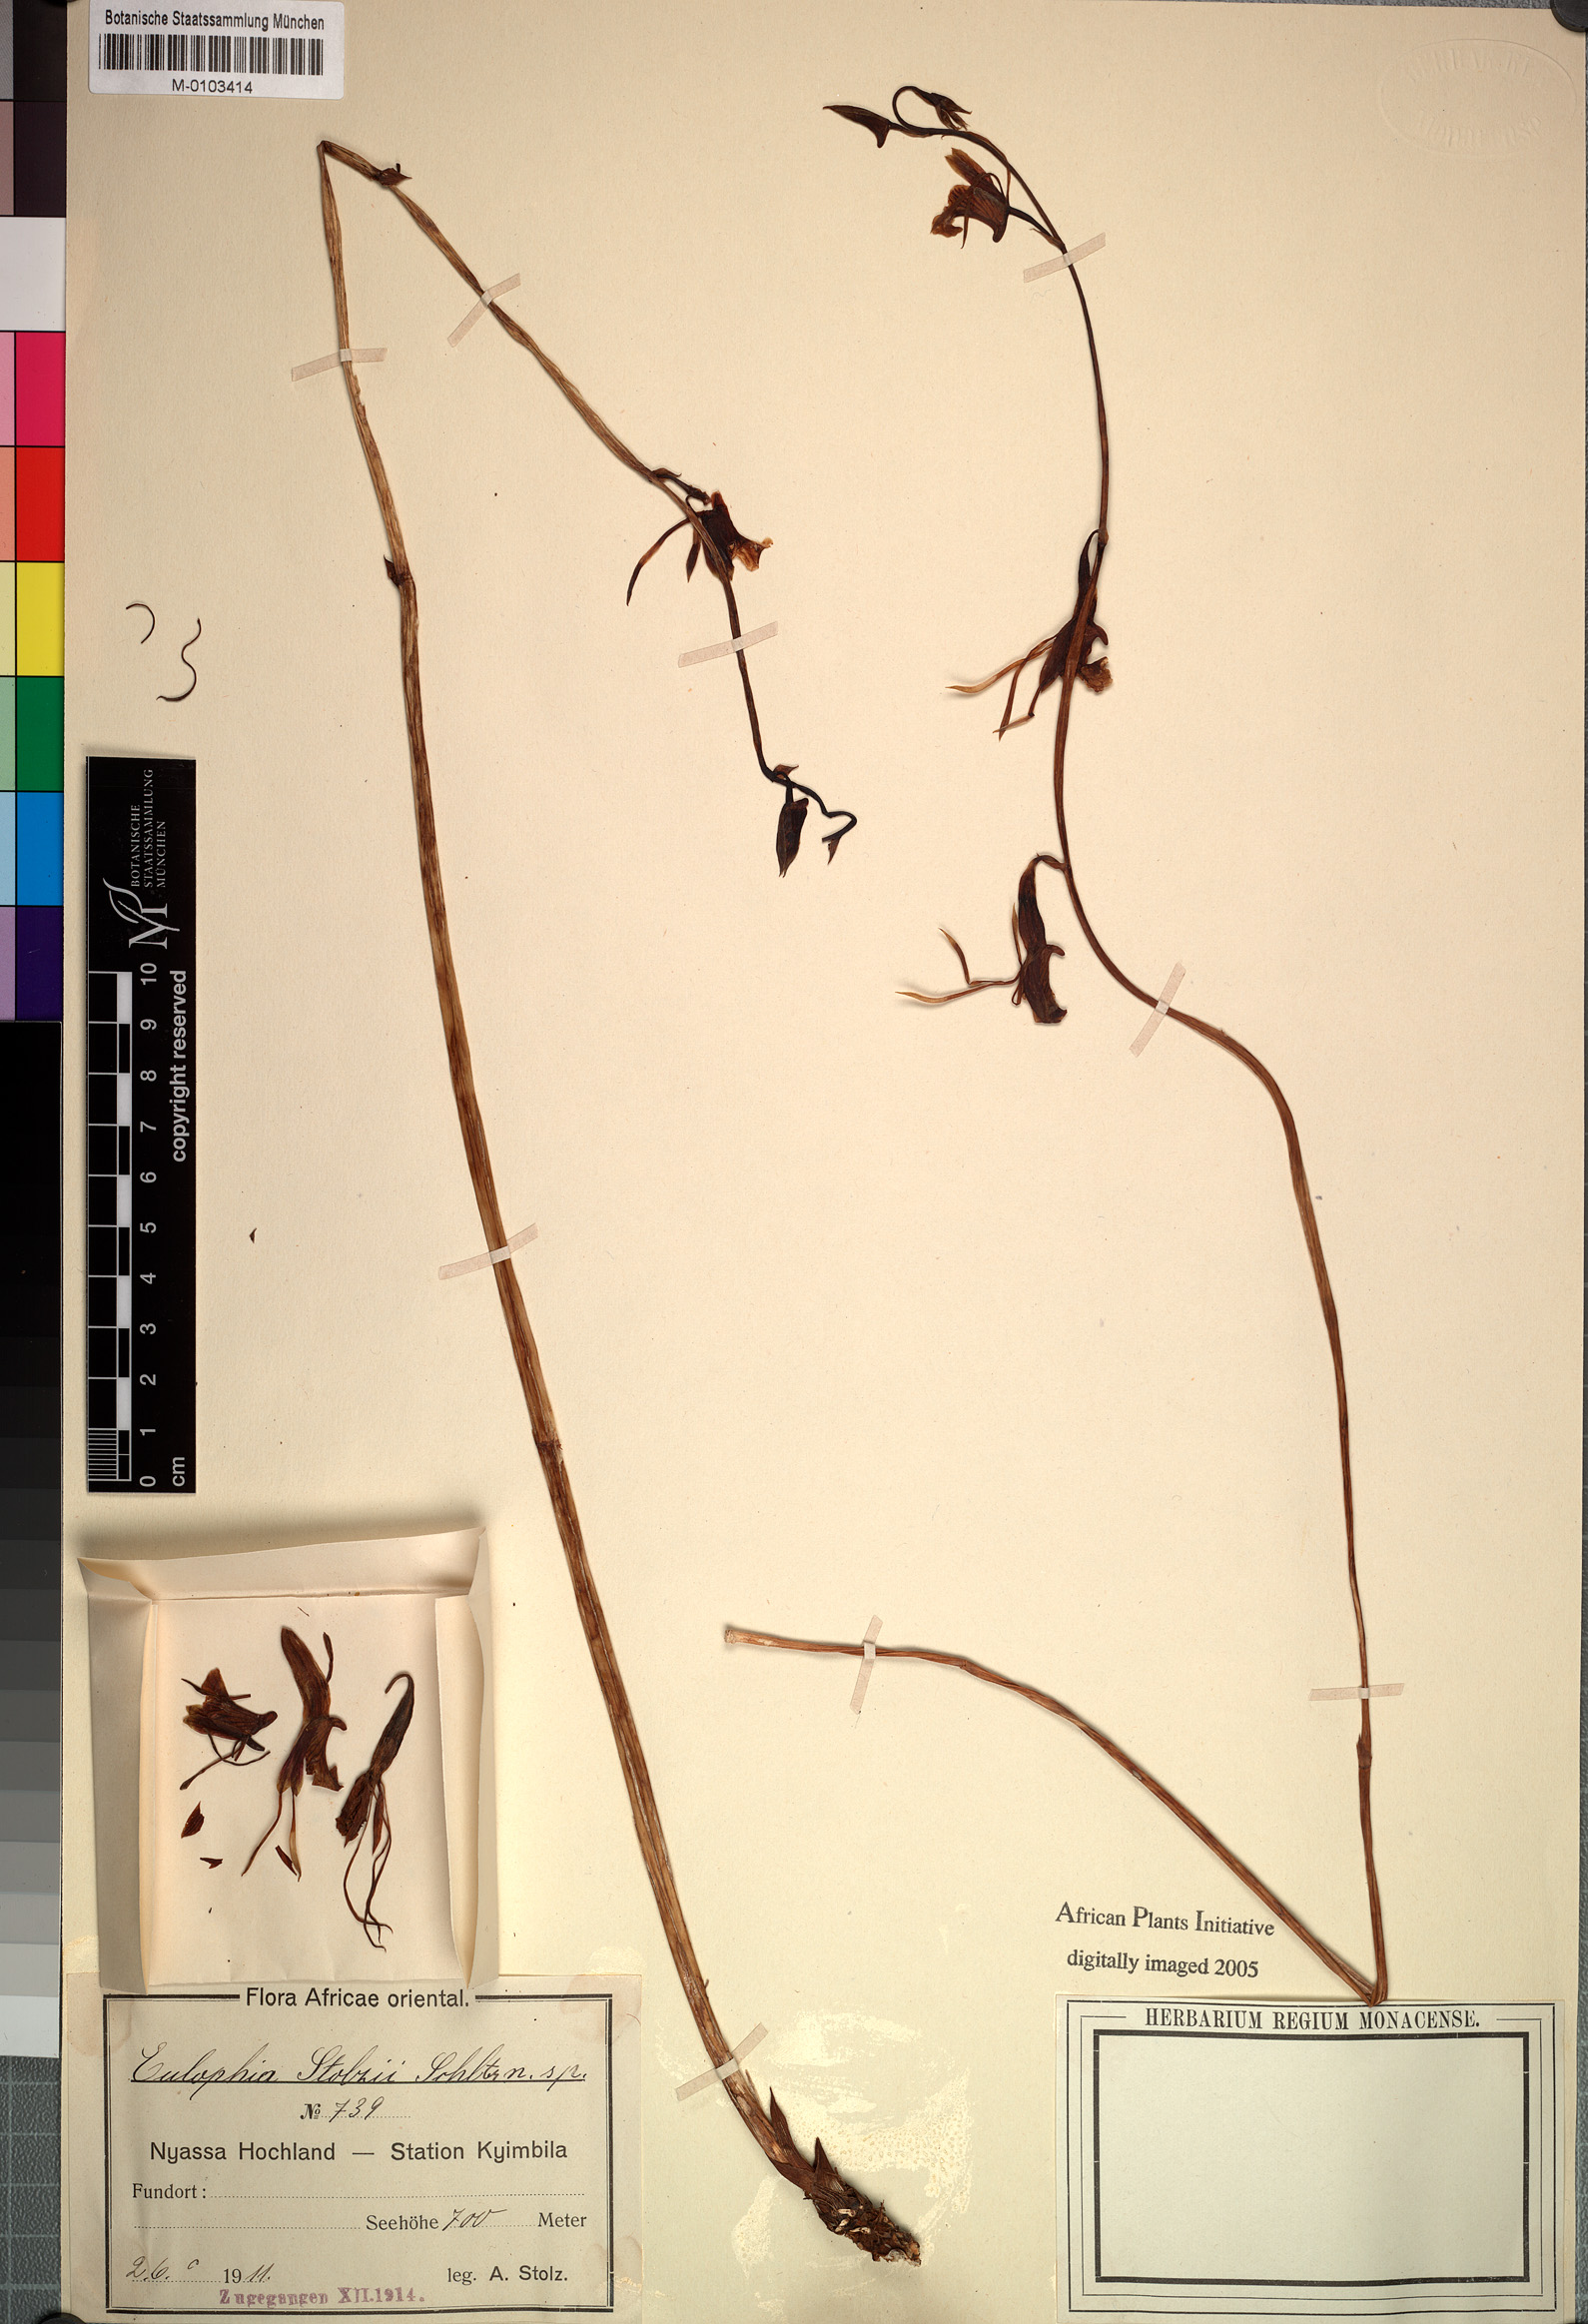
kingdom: Plantae
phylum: Tracheophyta
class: Liliopsida
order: Asparagales
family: Orchidaceae
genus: Eulophia
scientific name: Eulophia longisepala
